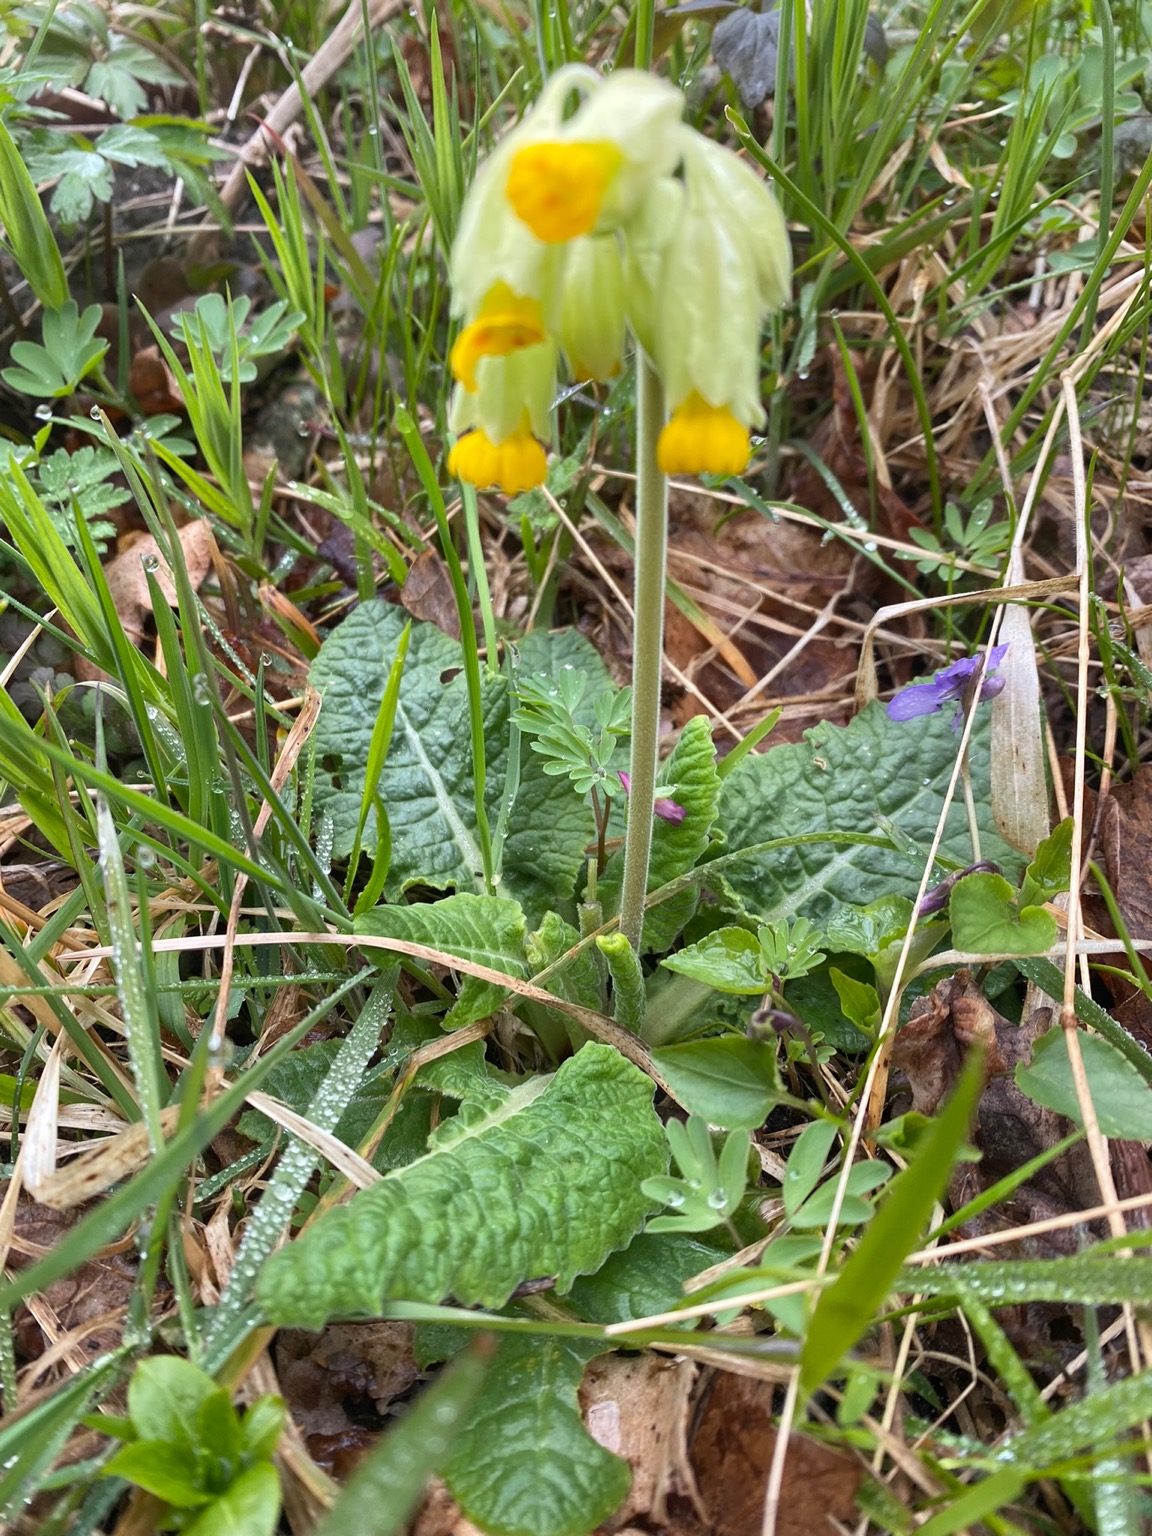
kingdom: Plantae
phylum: Tracheophyta
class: Magnoliopsida
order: Ericales
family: Primulaceae
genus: Primula
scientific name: Primula veris
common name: Hulkravet kodriver
